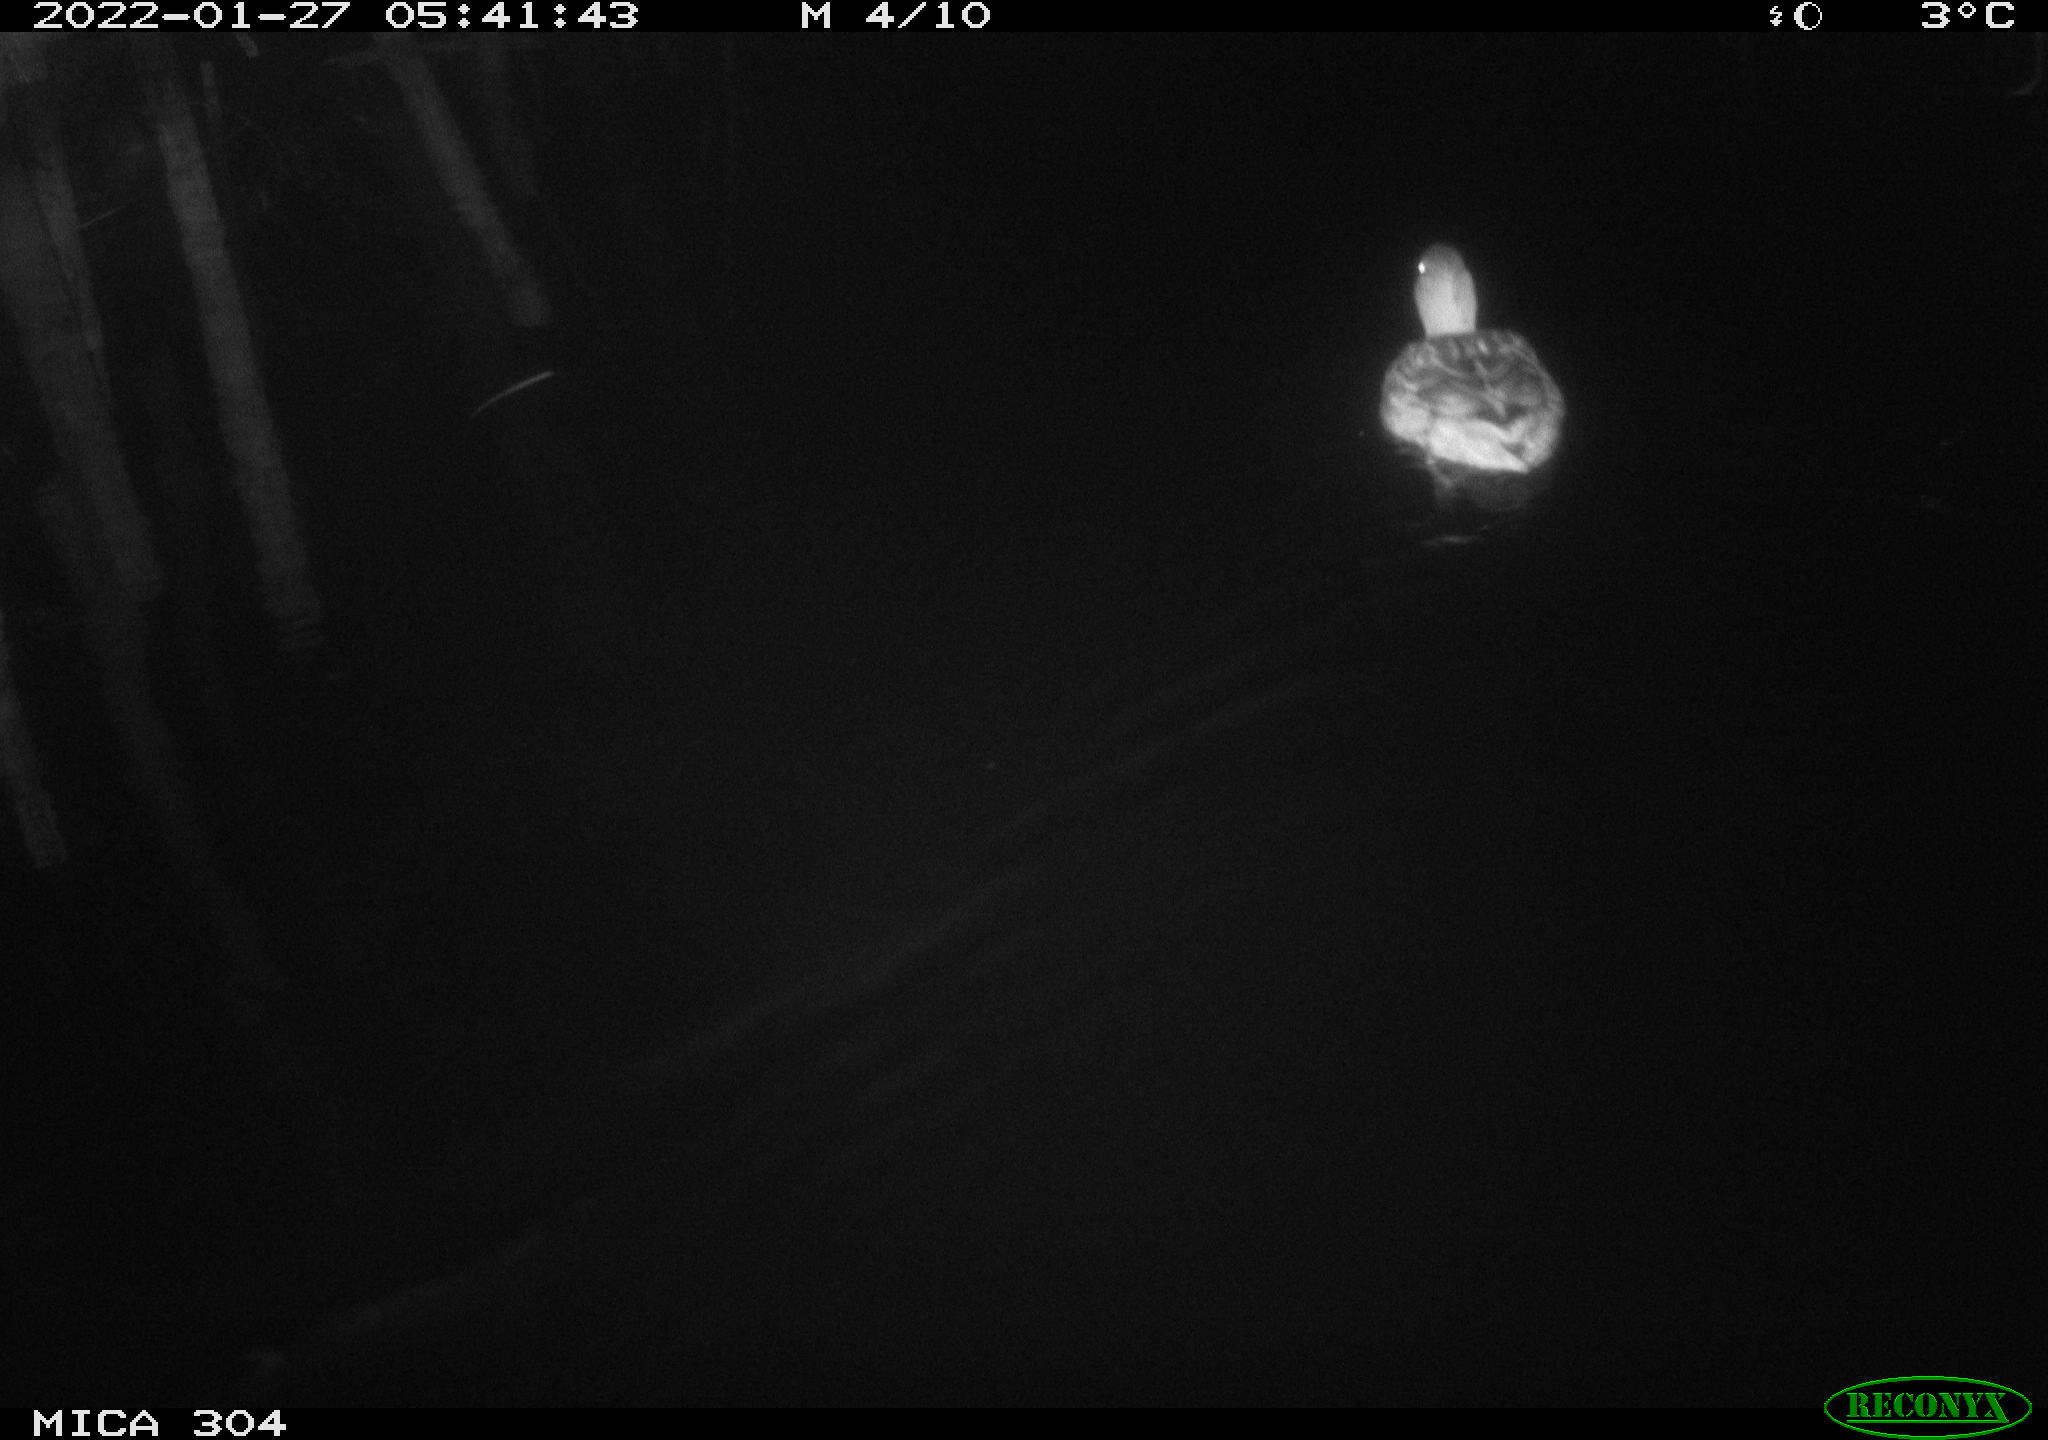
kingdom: Animalia
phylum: Chordata
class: Aves
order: Anseriformes
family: Anatidae
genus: Anas
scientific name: Anas
